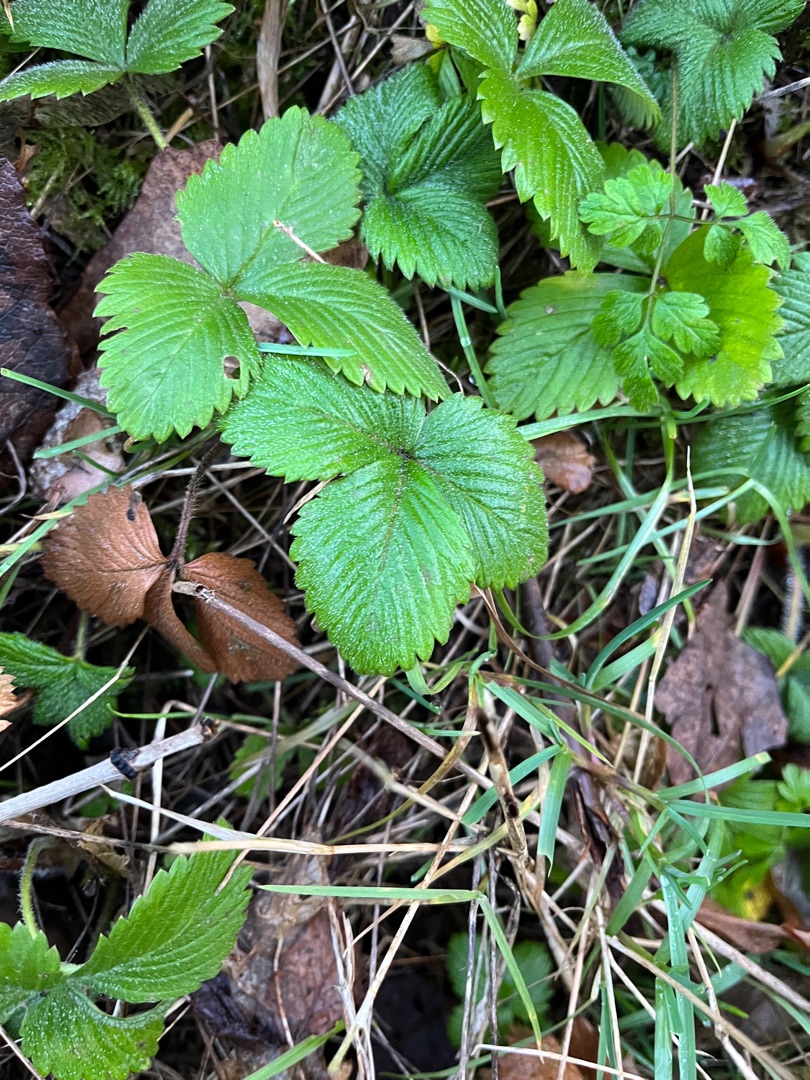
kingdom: Plantae
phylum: Tracheophyta
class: Magnoliopsida
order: Rosales
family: Rosaceae
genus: Fragaria
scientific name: Fragaria
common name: Jordbærslægten
